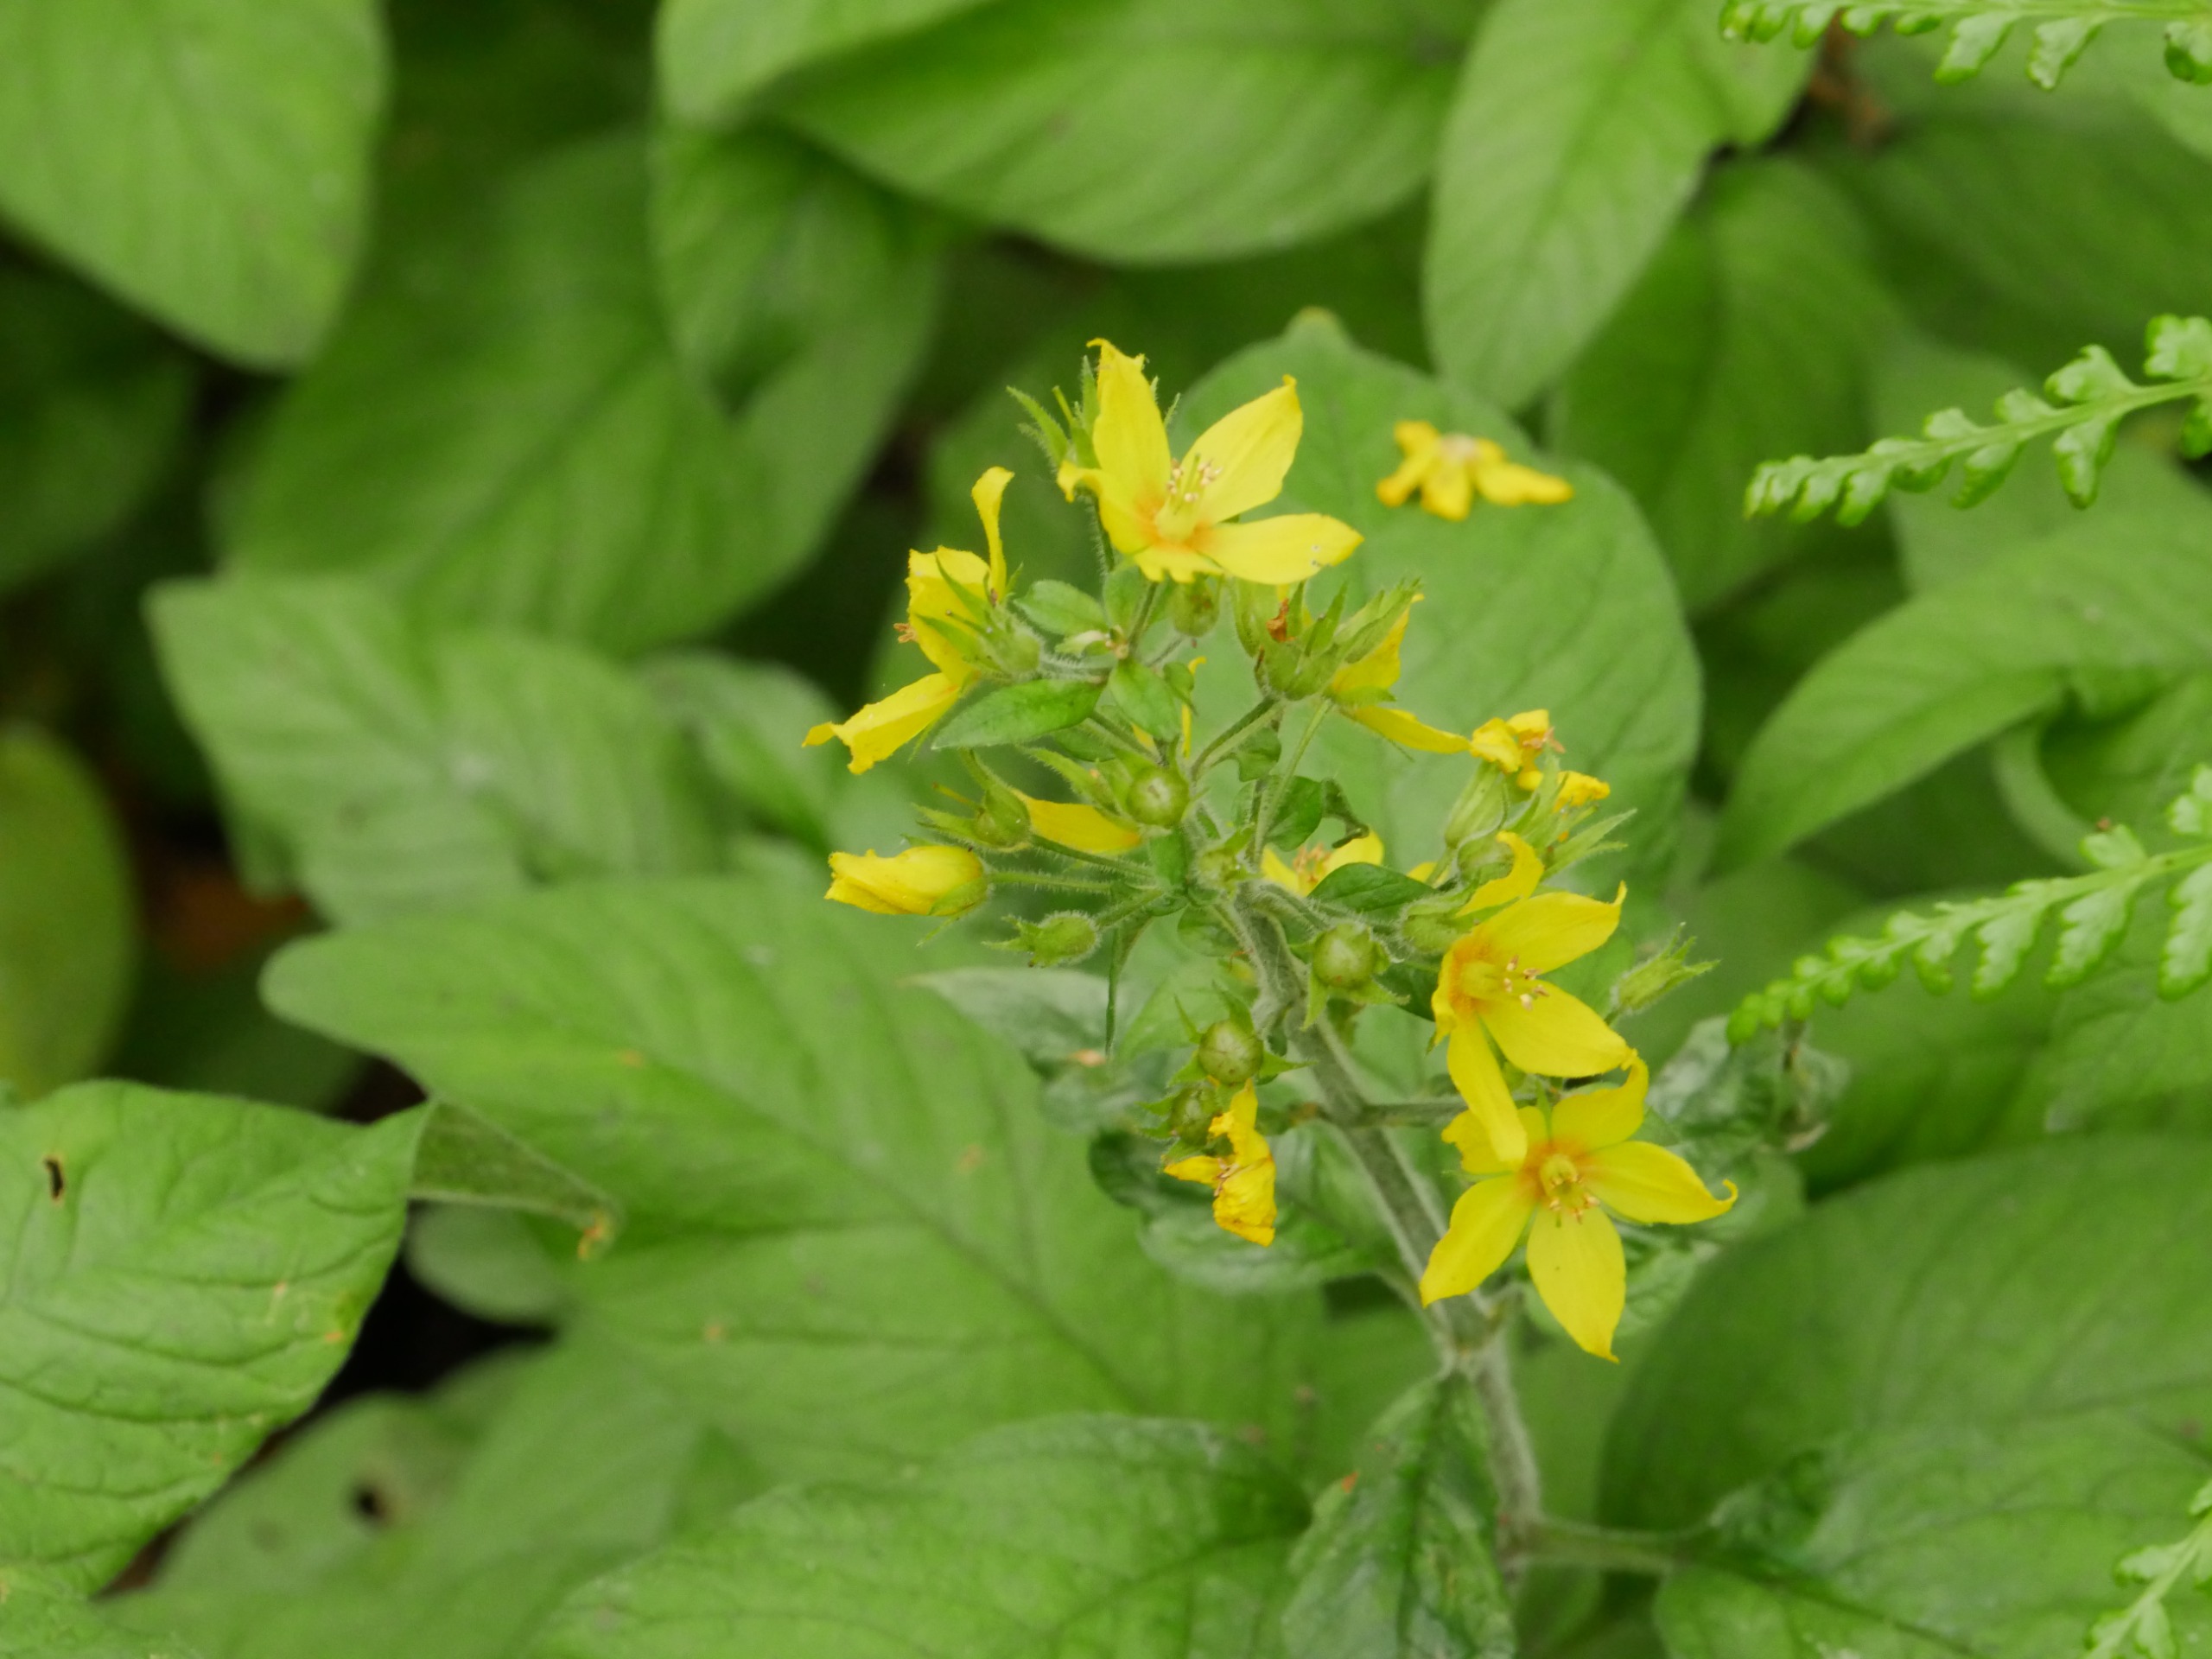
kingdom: Plantae
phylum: Tracheophyta
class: Magnoliopsida
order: Ericales
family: Primulaceae
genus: Lysimachia
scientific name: Lysimachia punctata
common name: Prikbladet fredløs
